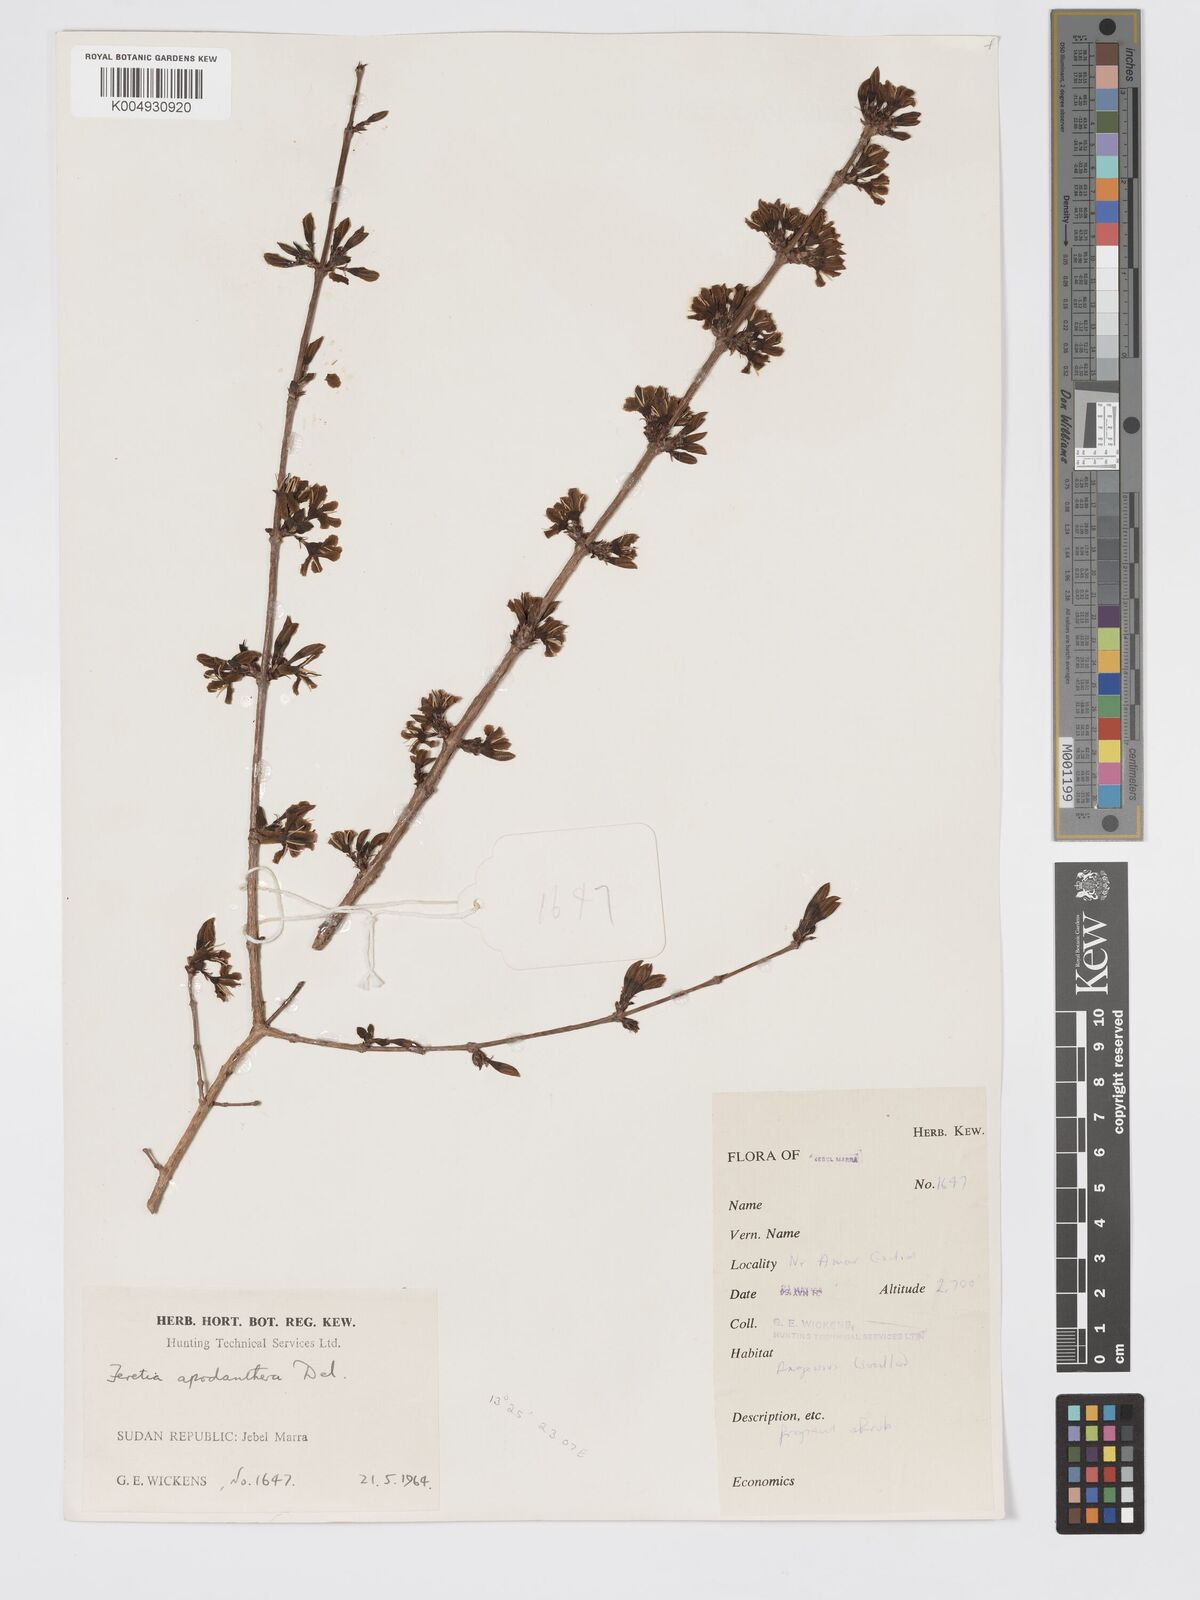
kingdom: Plantae
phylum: Tracheophyta
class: Magnoliopsida
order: Gentianales
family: Rubiaceae
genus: Feretia
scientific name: Feretia apodanthera
